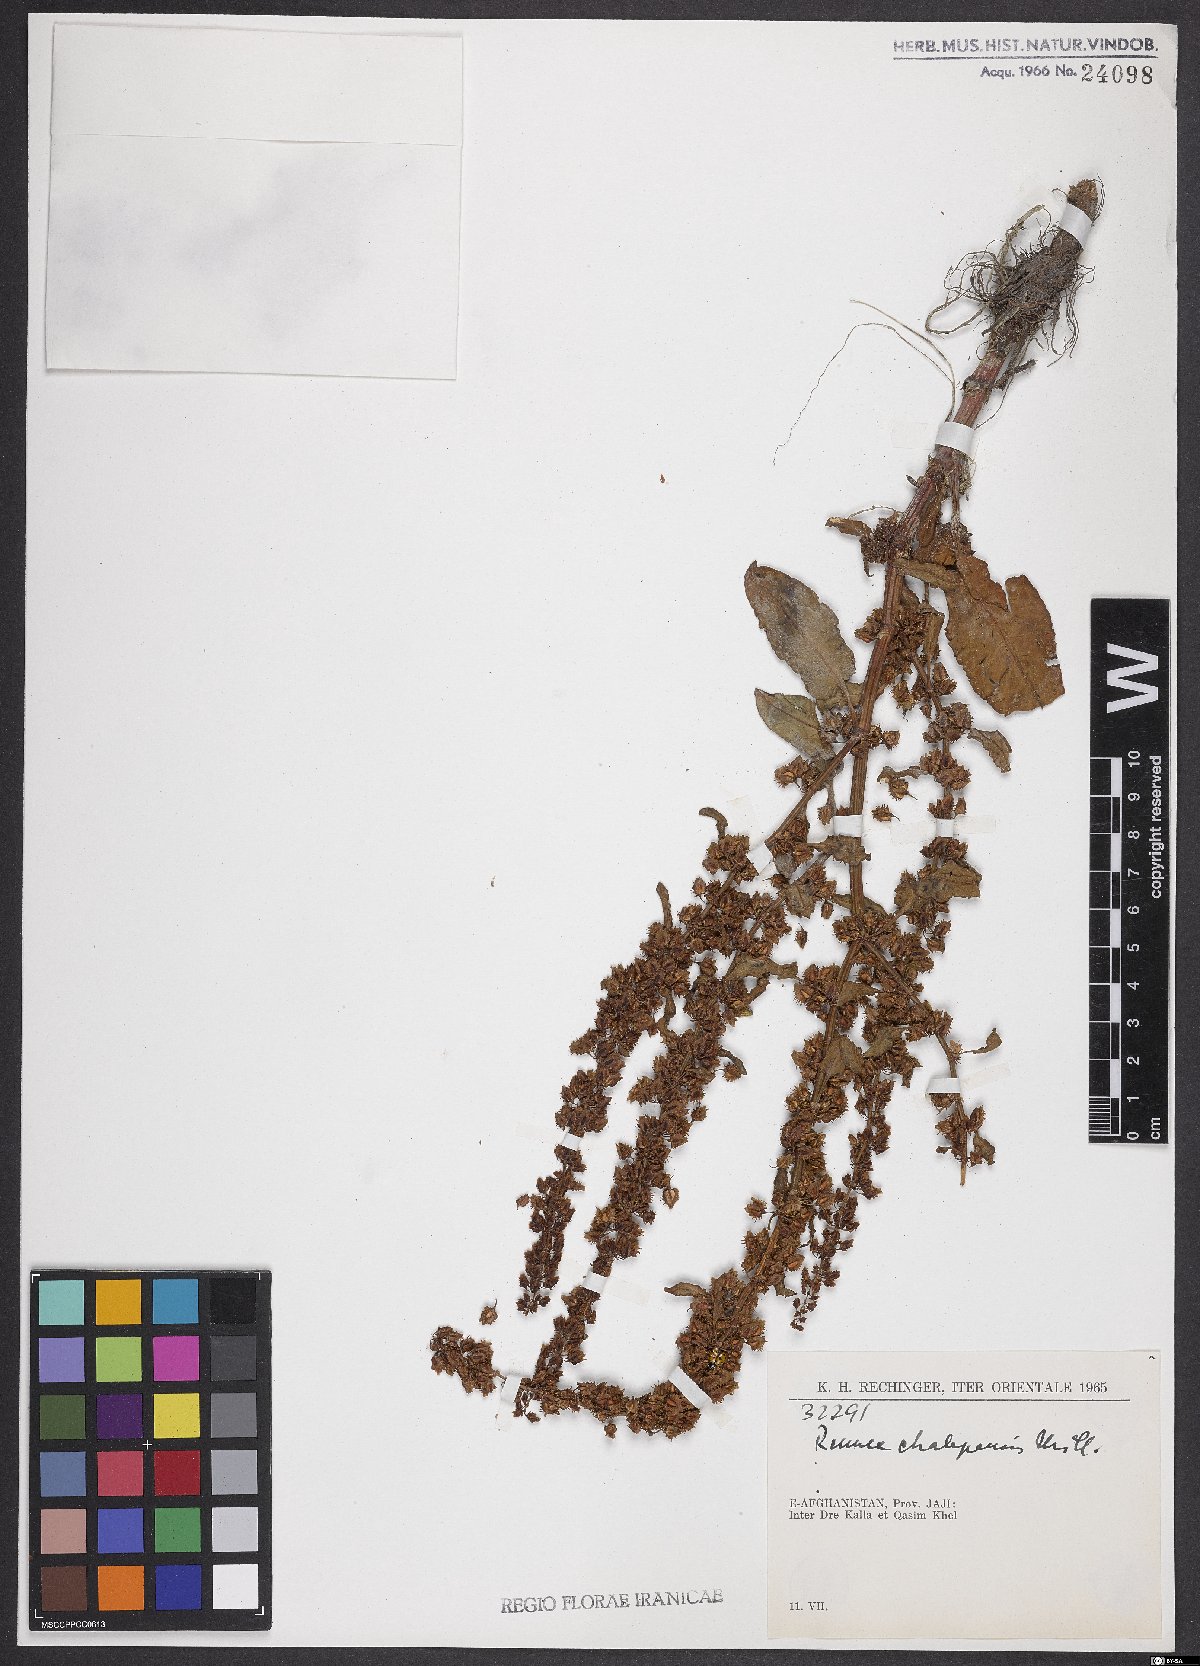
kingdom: Plantae
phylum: Tracheophyta
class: Magnoliopsida
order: Caryophyllales
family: Polygonaceae
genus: Rumex
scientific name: Rumex chalepensis
